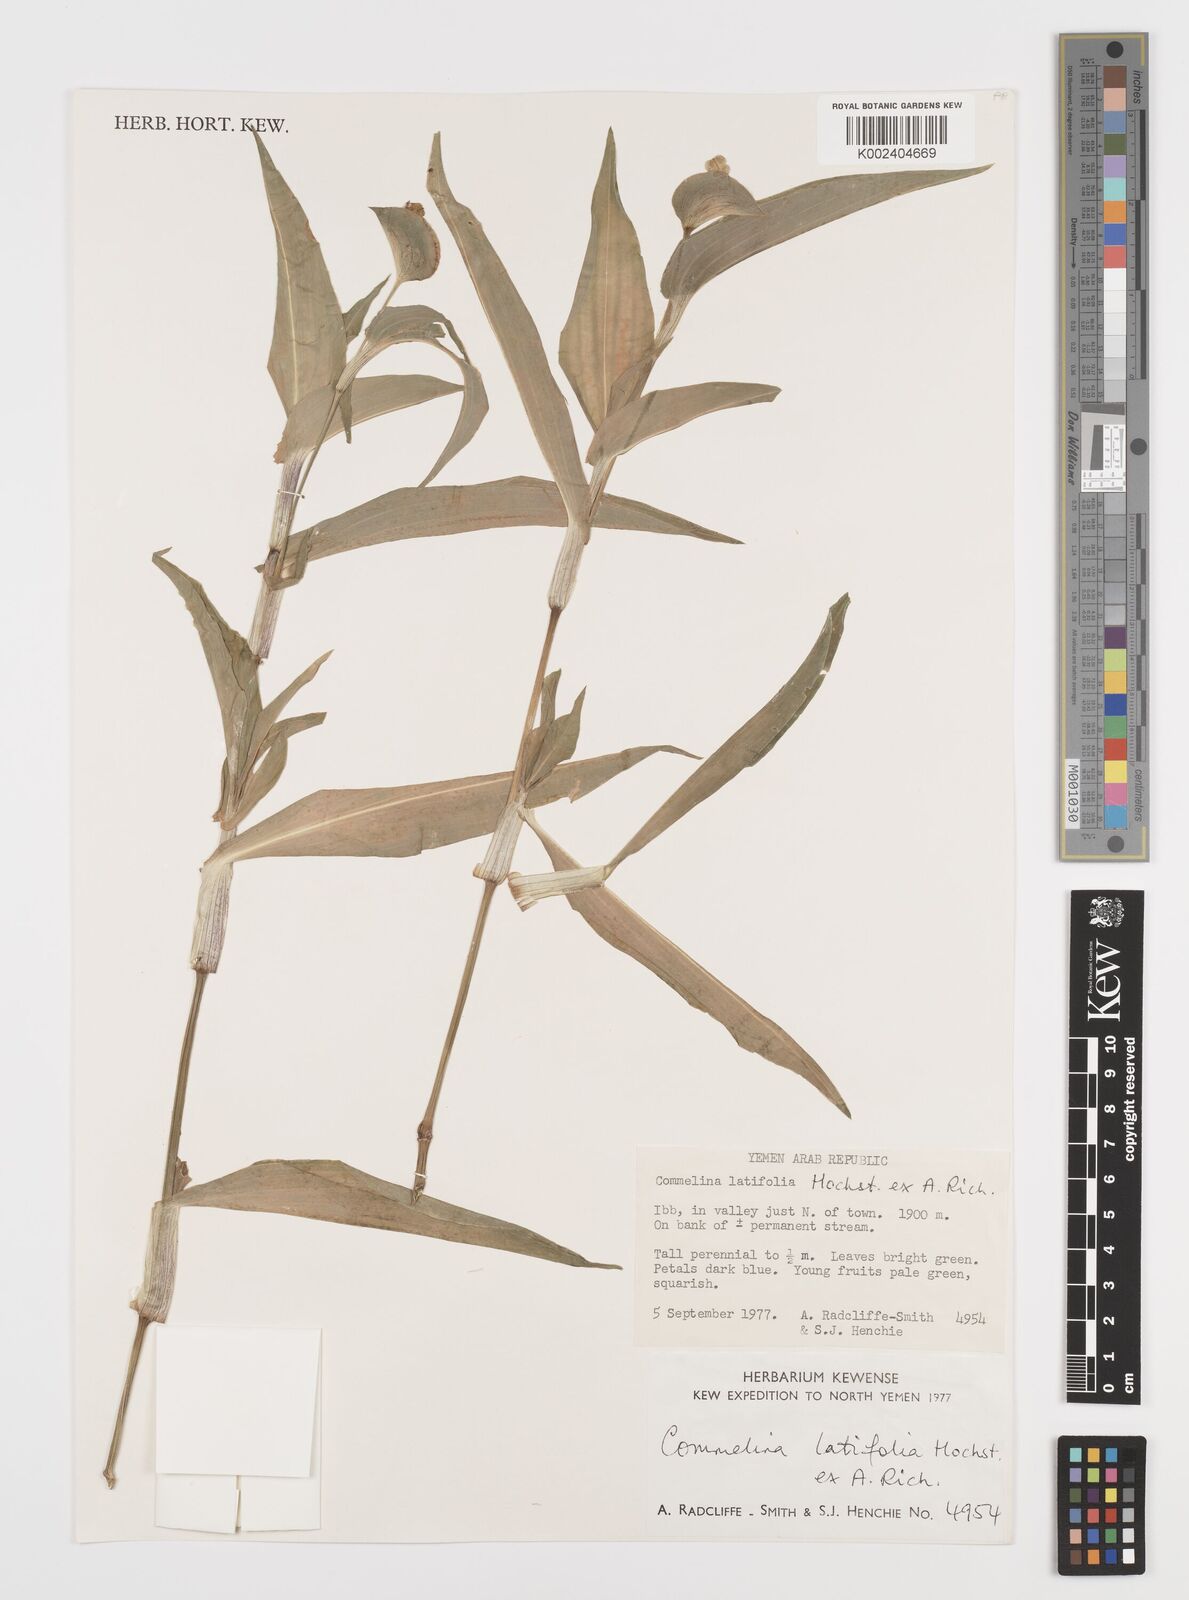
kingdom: Plantae
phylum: Tracheophyta
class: Liliopsida
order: Commelinales
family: Commelinaceae
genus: Commelina
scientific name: Commelina latifolia
